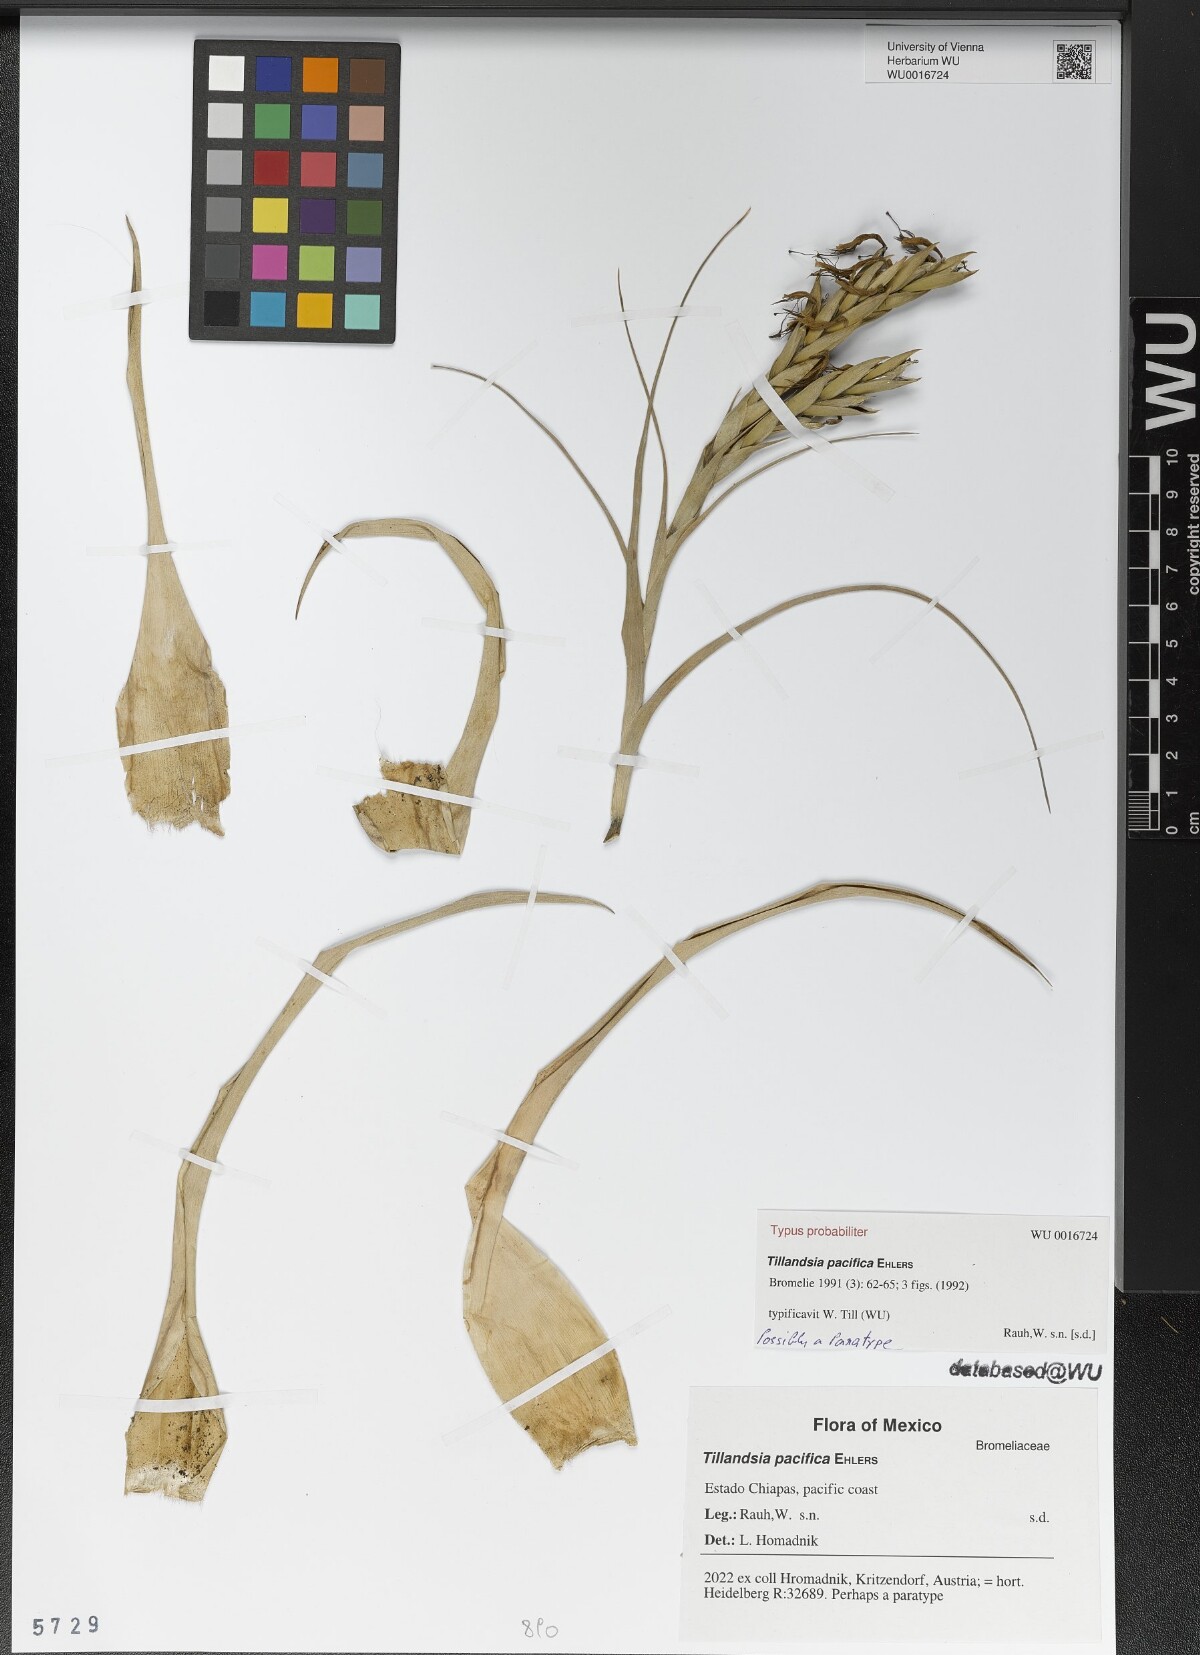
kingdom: Plantae
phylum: Tracheophyta
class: Liliopsida
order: Poales
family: Bromeliaceae
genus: Tillandsia
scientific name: Tillandsia pacifica
